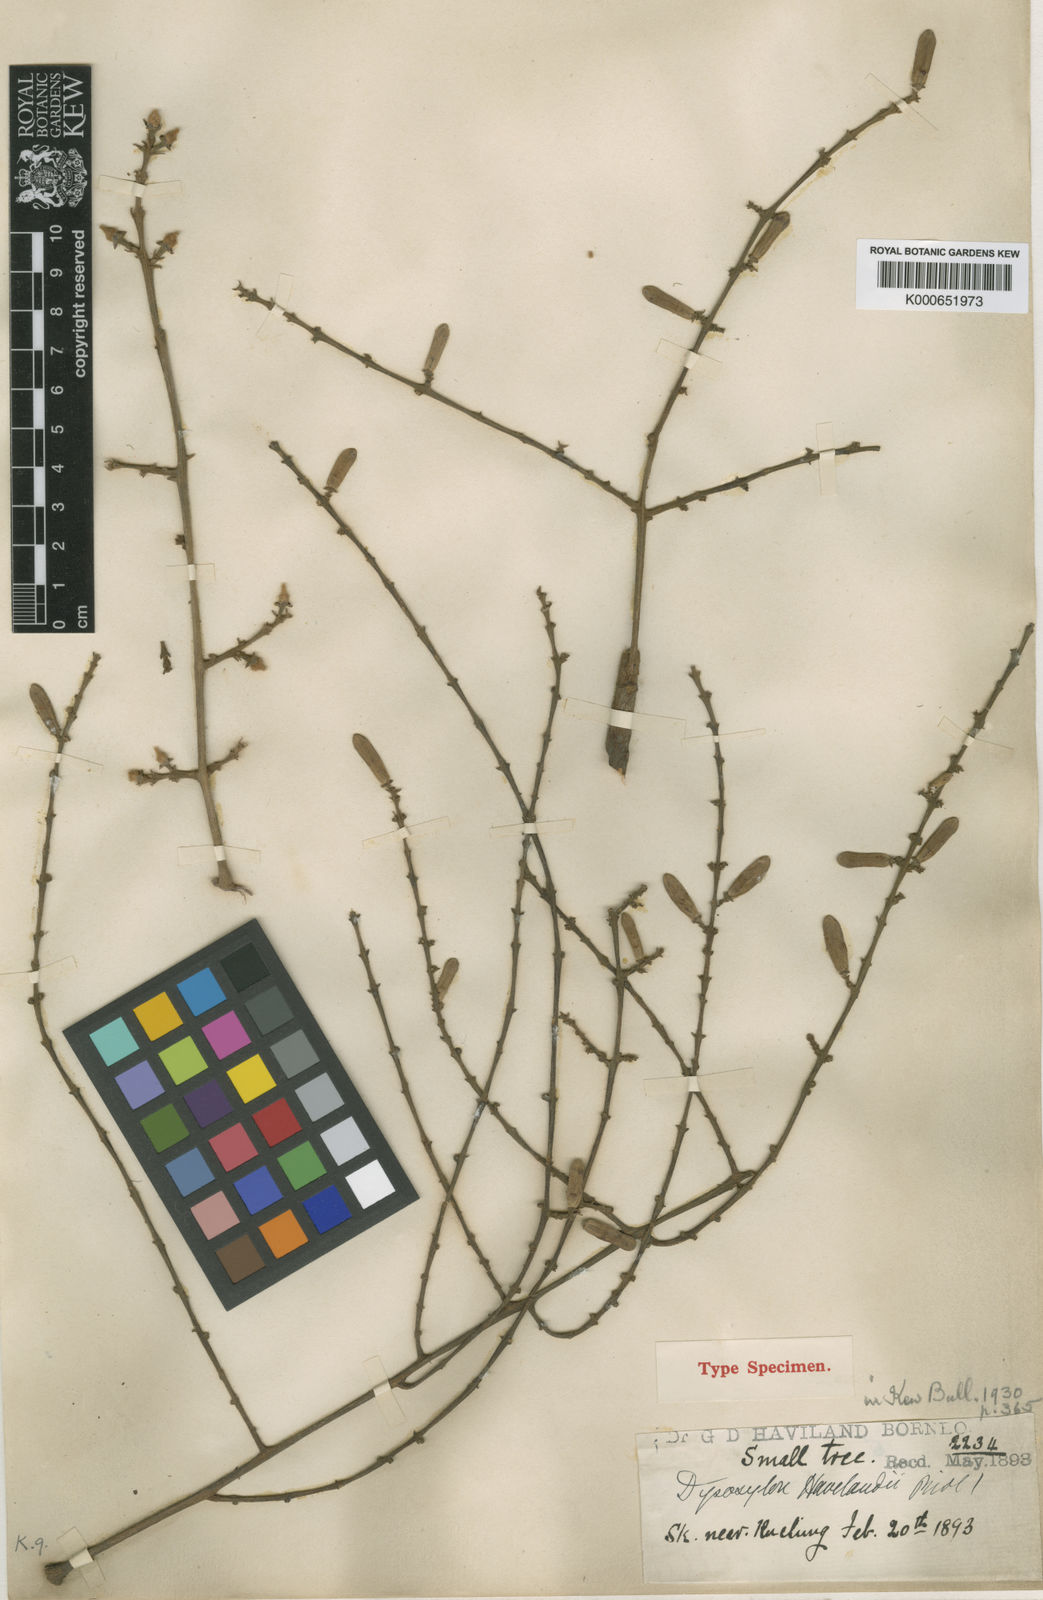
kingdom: Plantae
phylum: Tracheophyta
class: Magnoliopsida
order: Sapindales
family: Meliaceae
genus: Dysoxylum
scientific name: Dysoxylum excelsum
